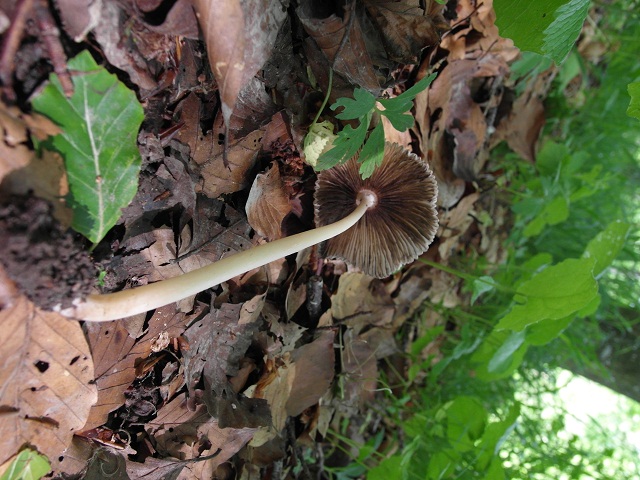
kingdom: Fungi
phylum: Basidiomycota
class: Agaricomycetes
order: Agaricales
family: Psathyrellaceae
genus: Parasola
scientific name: Parasola kuehneri
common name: skygge-hjulhat
